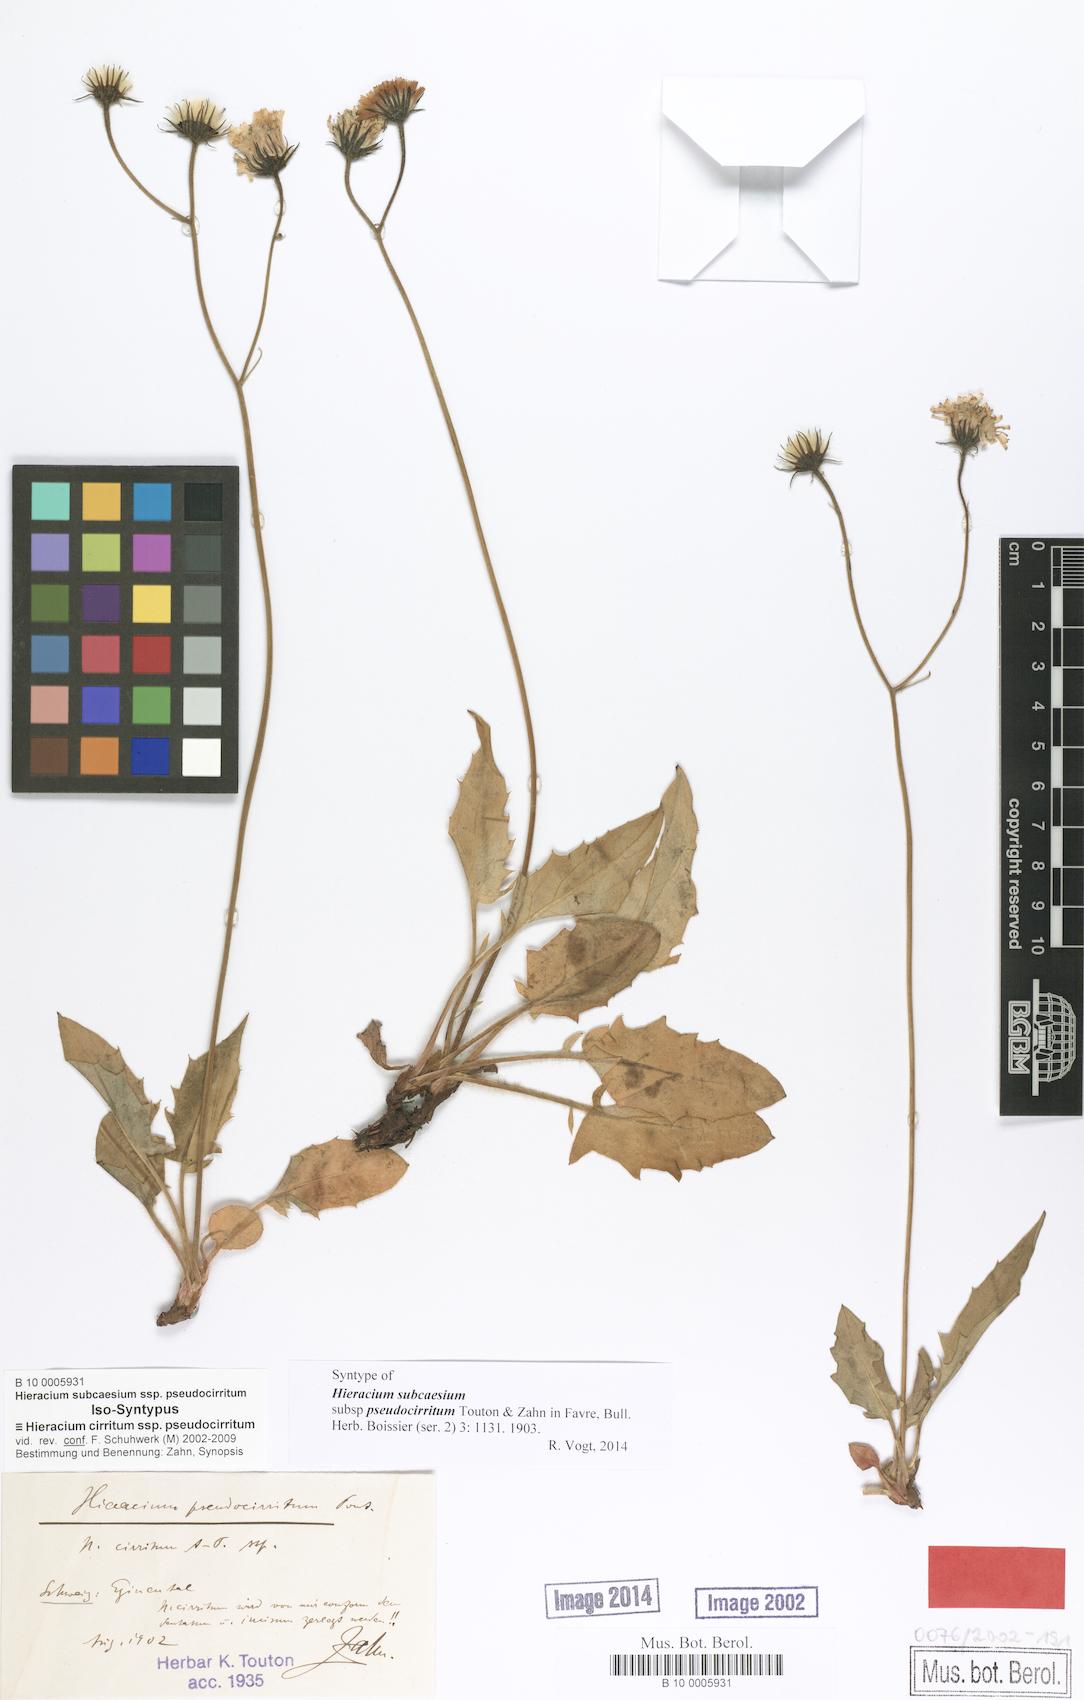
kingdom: Plantae
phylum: Tracheophyta
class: Magnoliopsida
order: Asterales
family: Asteraceae
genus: Hieracium
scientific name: Hieracium cirritum
